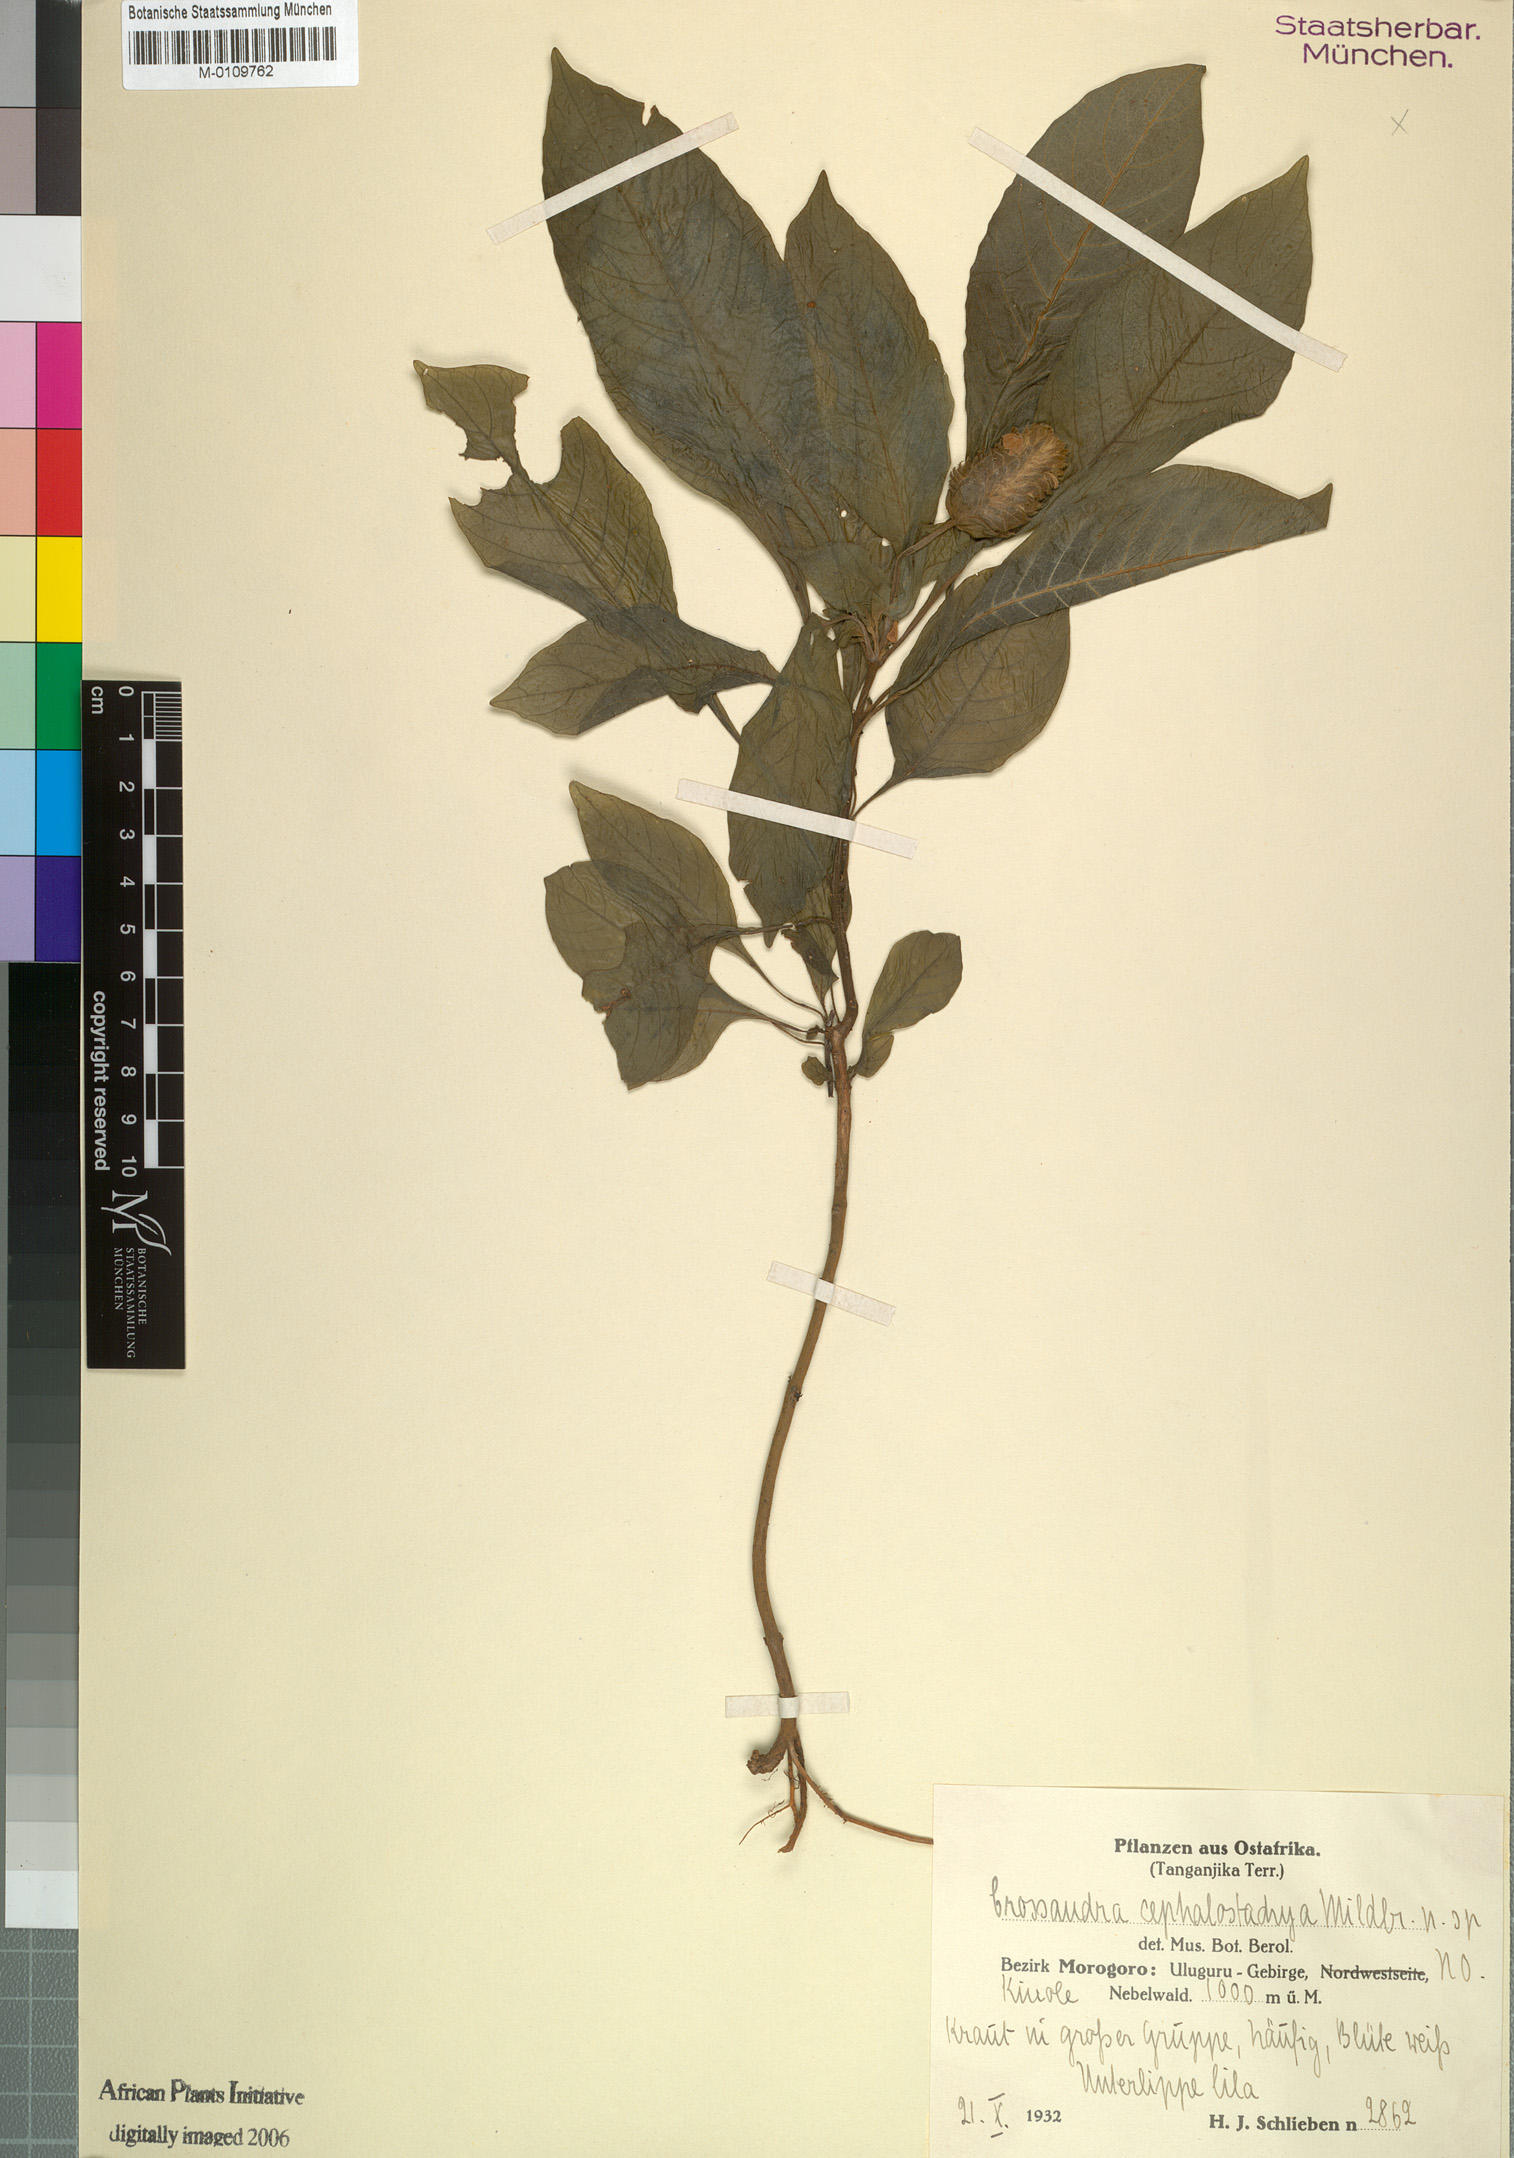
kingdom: Plantae
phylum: Tracheophyta
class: Magnoliopsida
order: Lamiales
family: Acanthaceae
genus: Crossandra
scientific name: Crossandra cephalostachya
